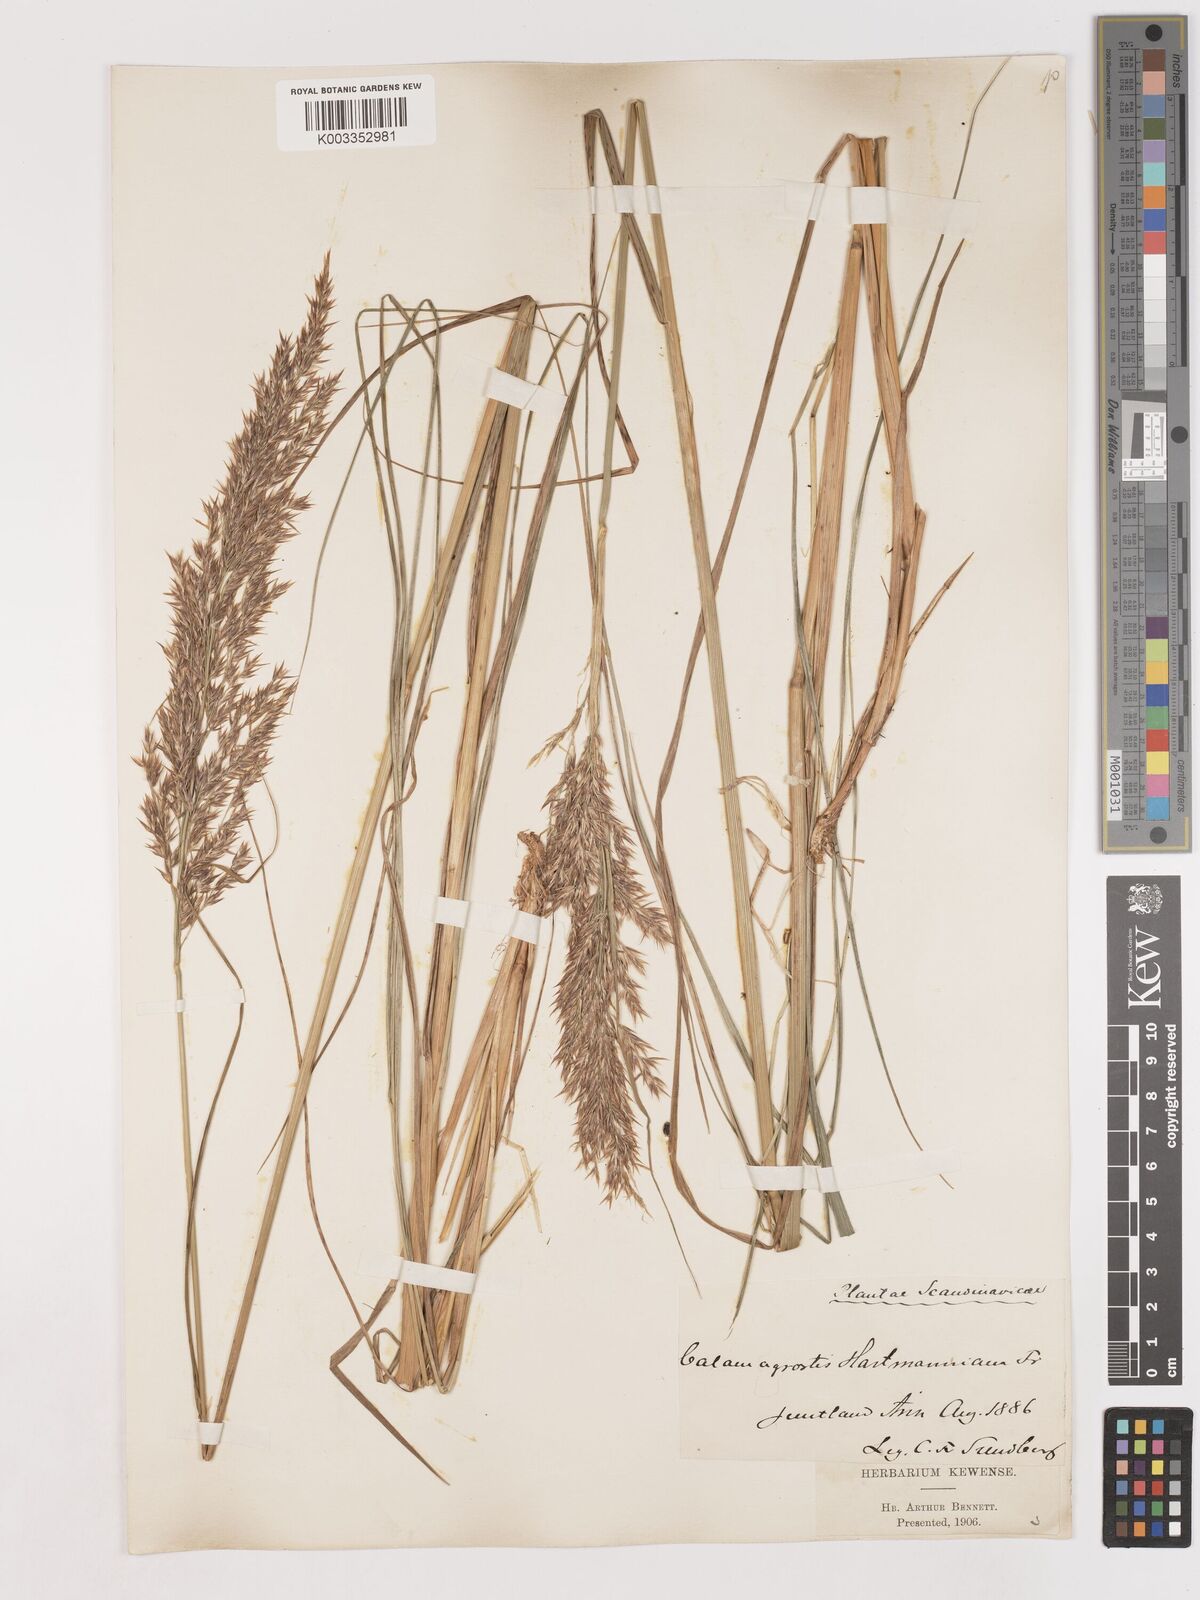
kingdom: Plantae
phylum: Tracheophyta
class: Liliopsida
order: Poales
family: Poaceae
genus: Calamagrostis
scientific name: Calamagrostis canescens
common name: Purple small-reed
